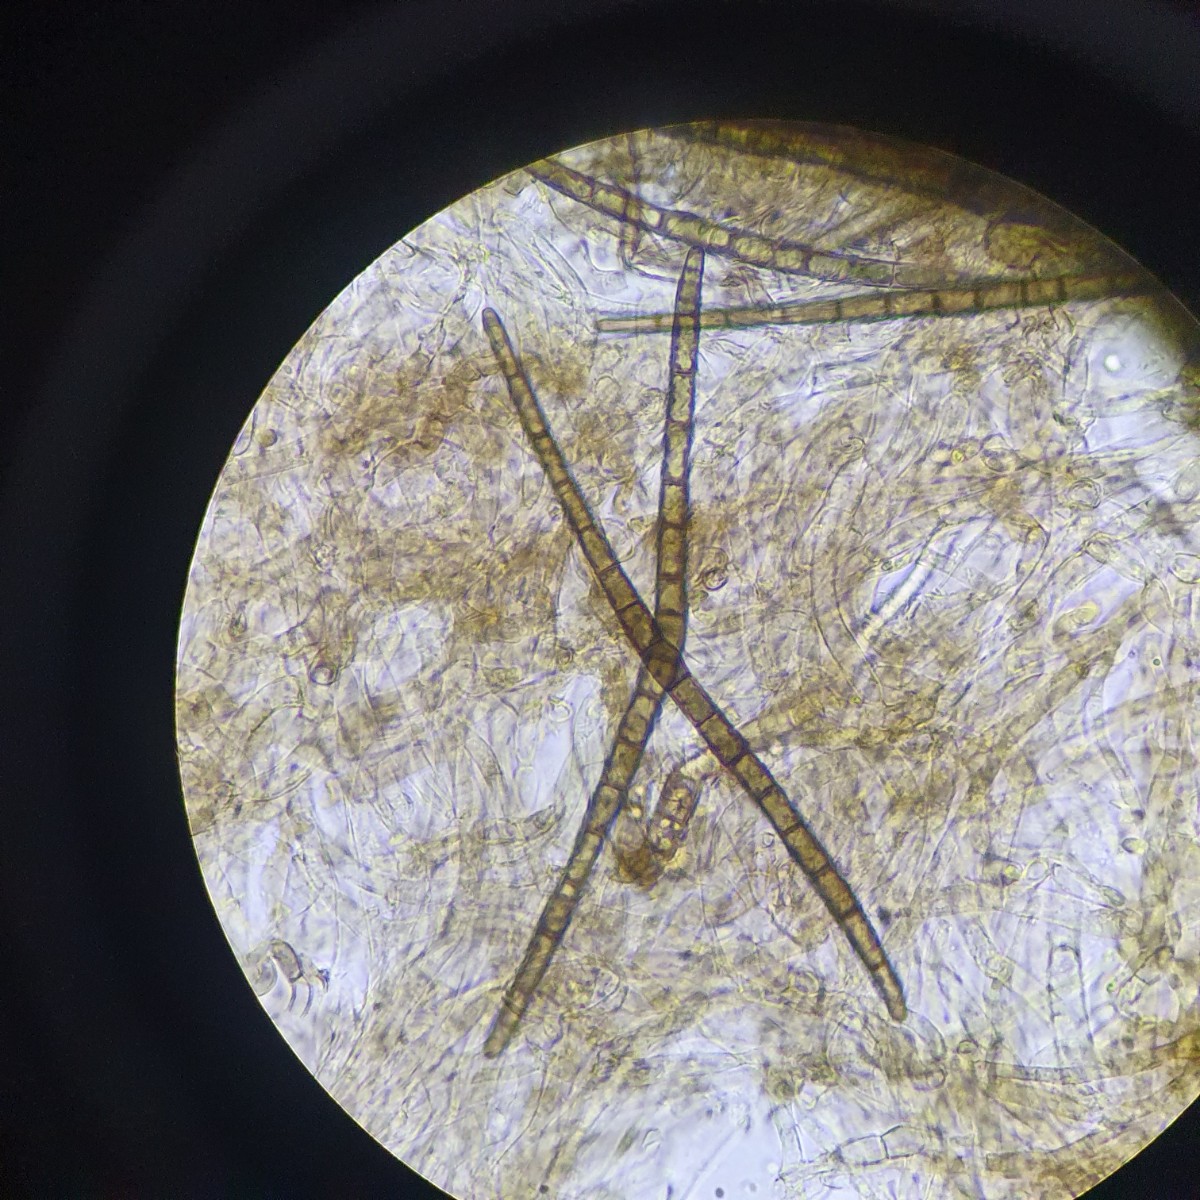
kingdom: Fungi
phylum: Ascomycota
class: Geoglossomycetes
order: Geoglossales
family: Geoglossaceae
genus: Trichoglossum
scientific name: Trichoglossum hirsutum
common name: håret jordtunge
